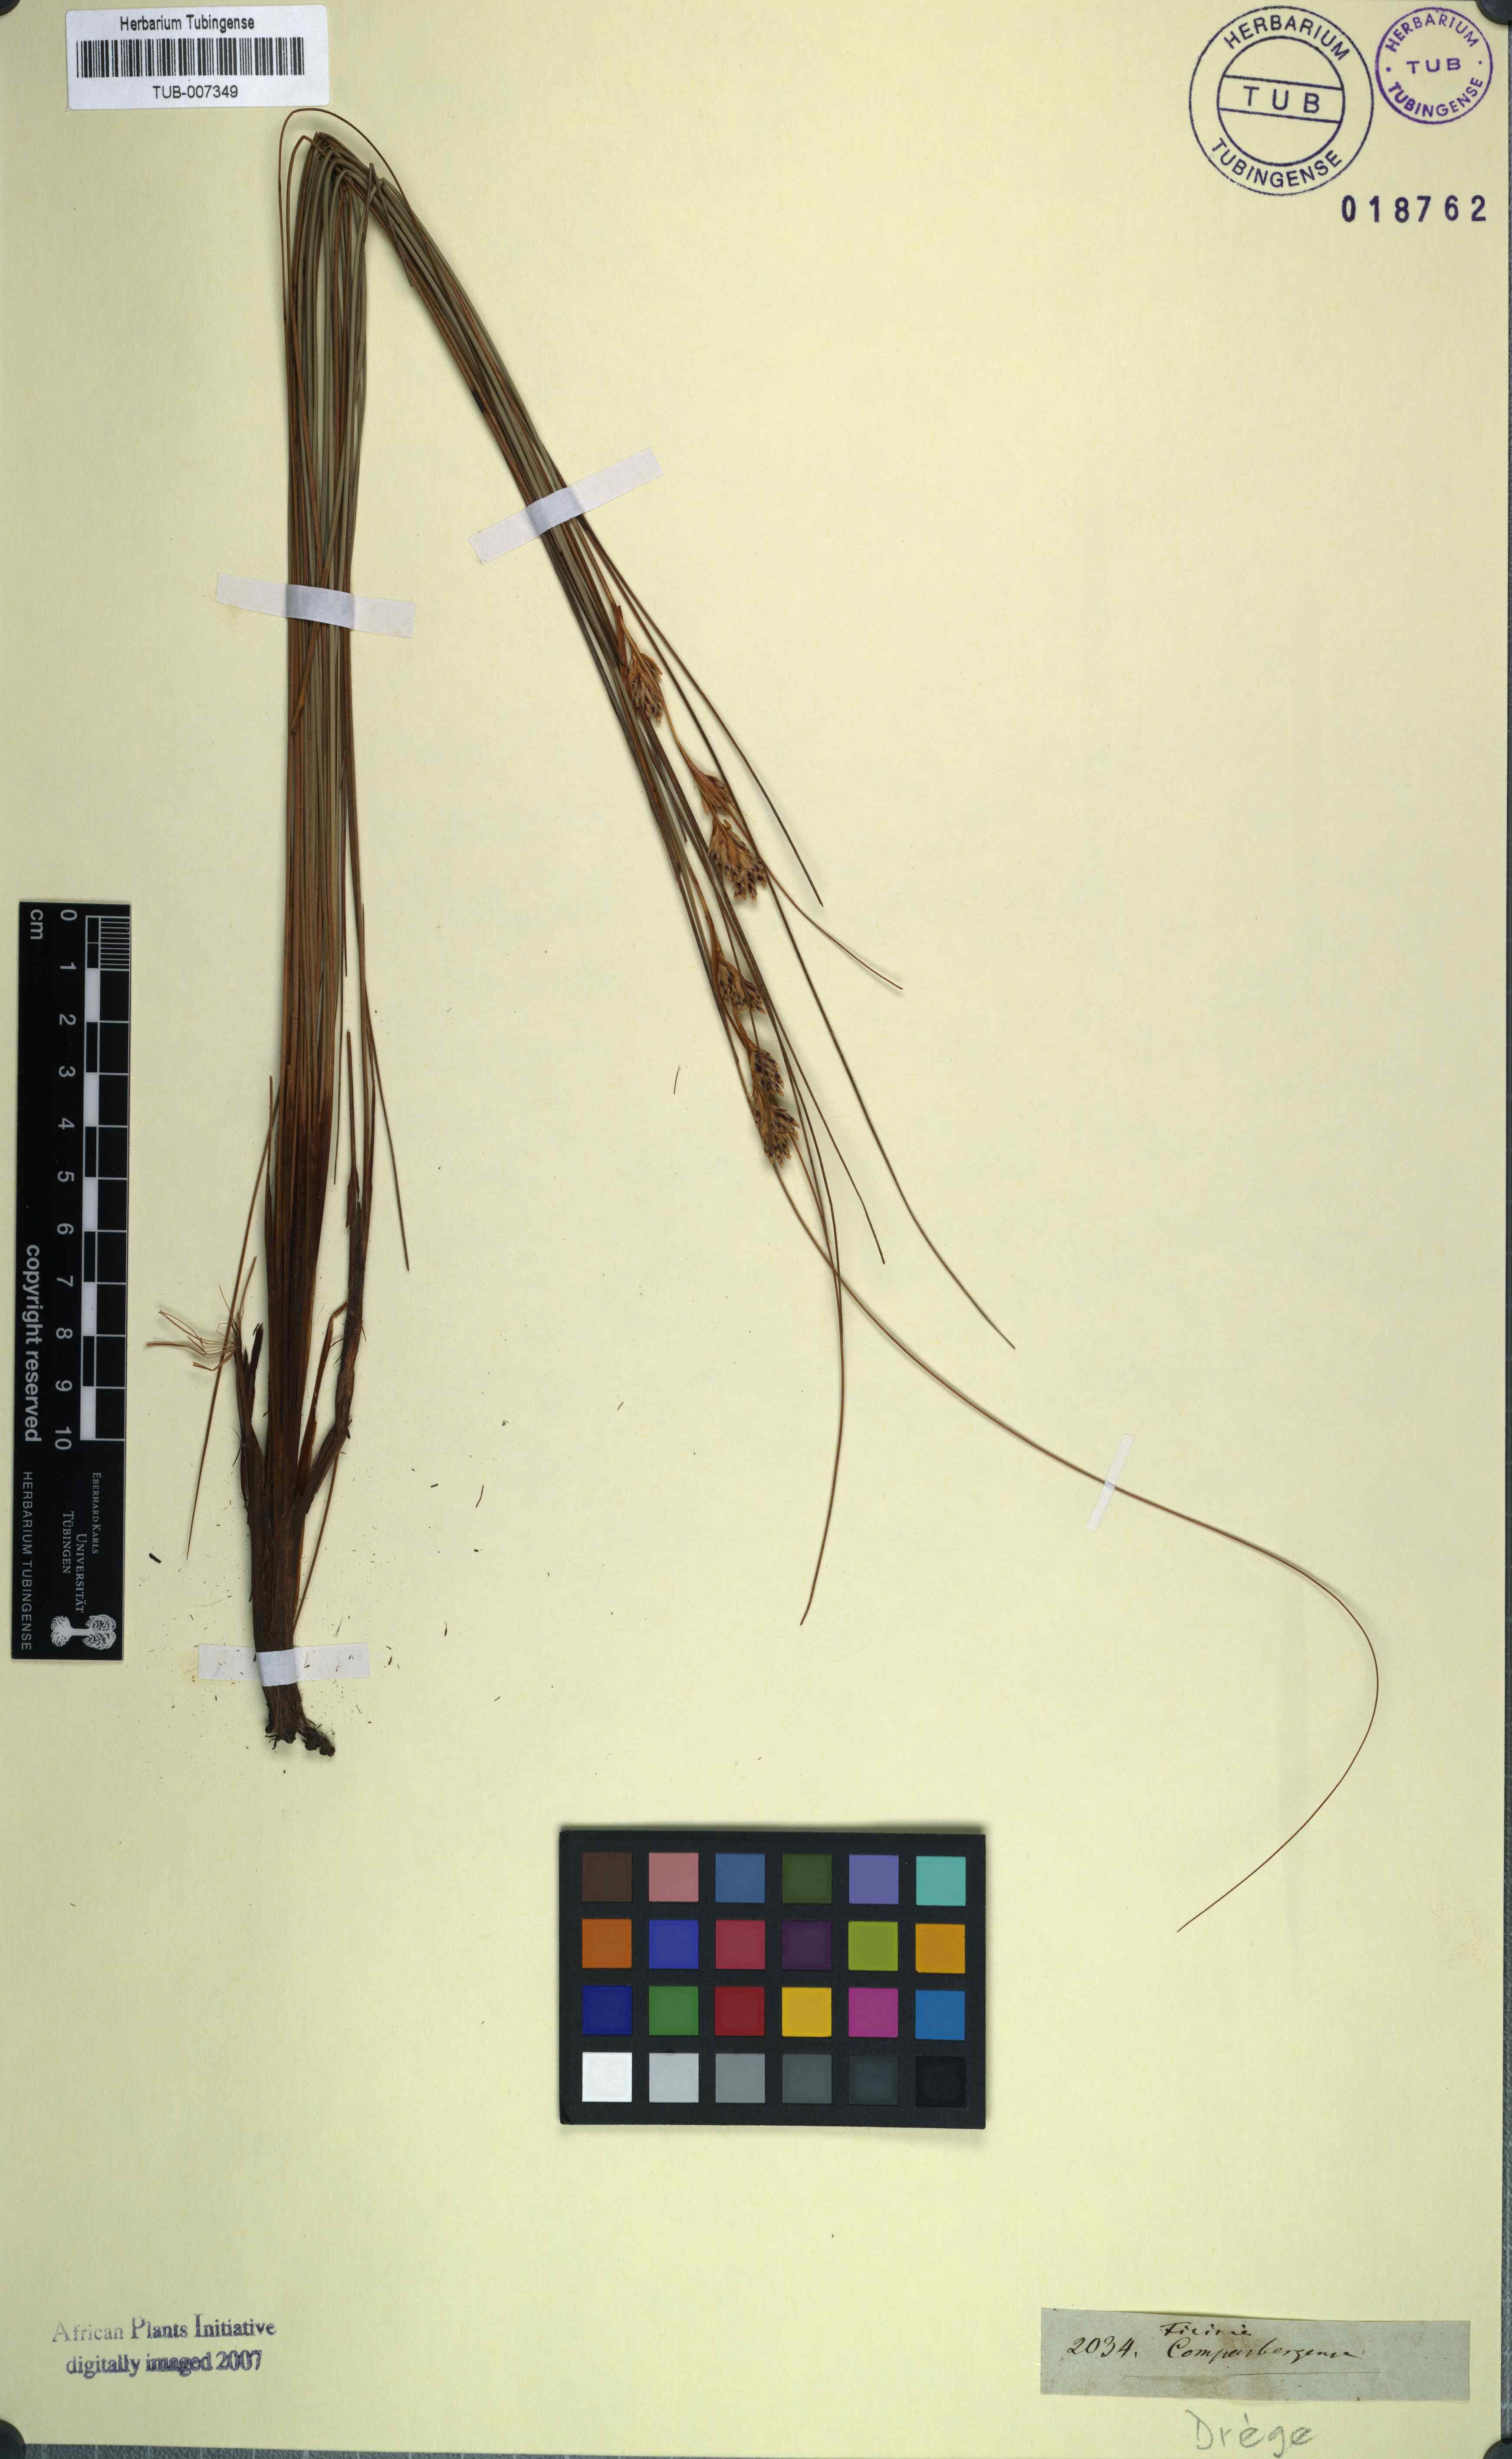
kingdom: Plantae
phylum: Tracheophyta
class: Liliopsida
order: Poales
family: Cyperaceae
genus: Ficinia
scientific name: Ficinia compasbergensis
